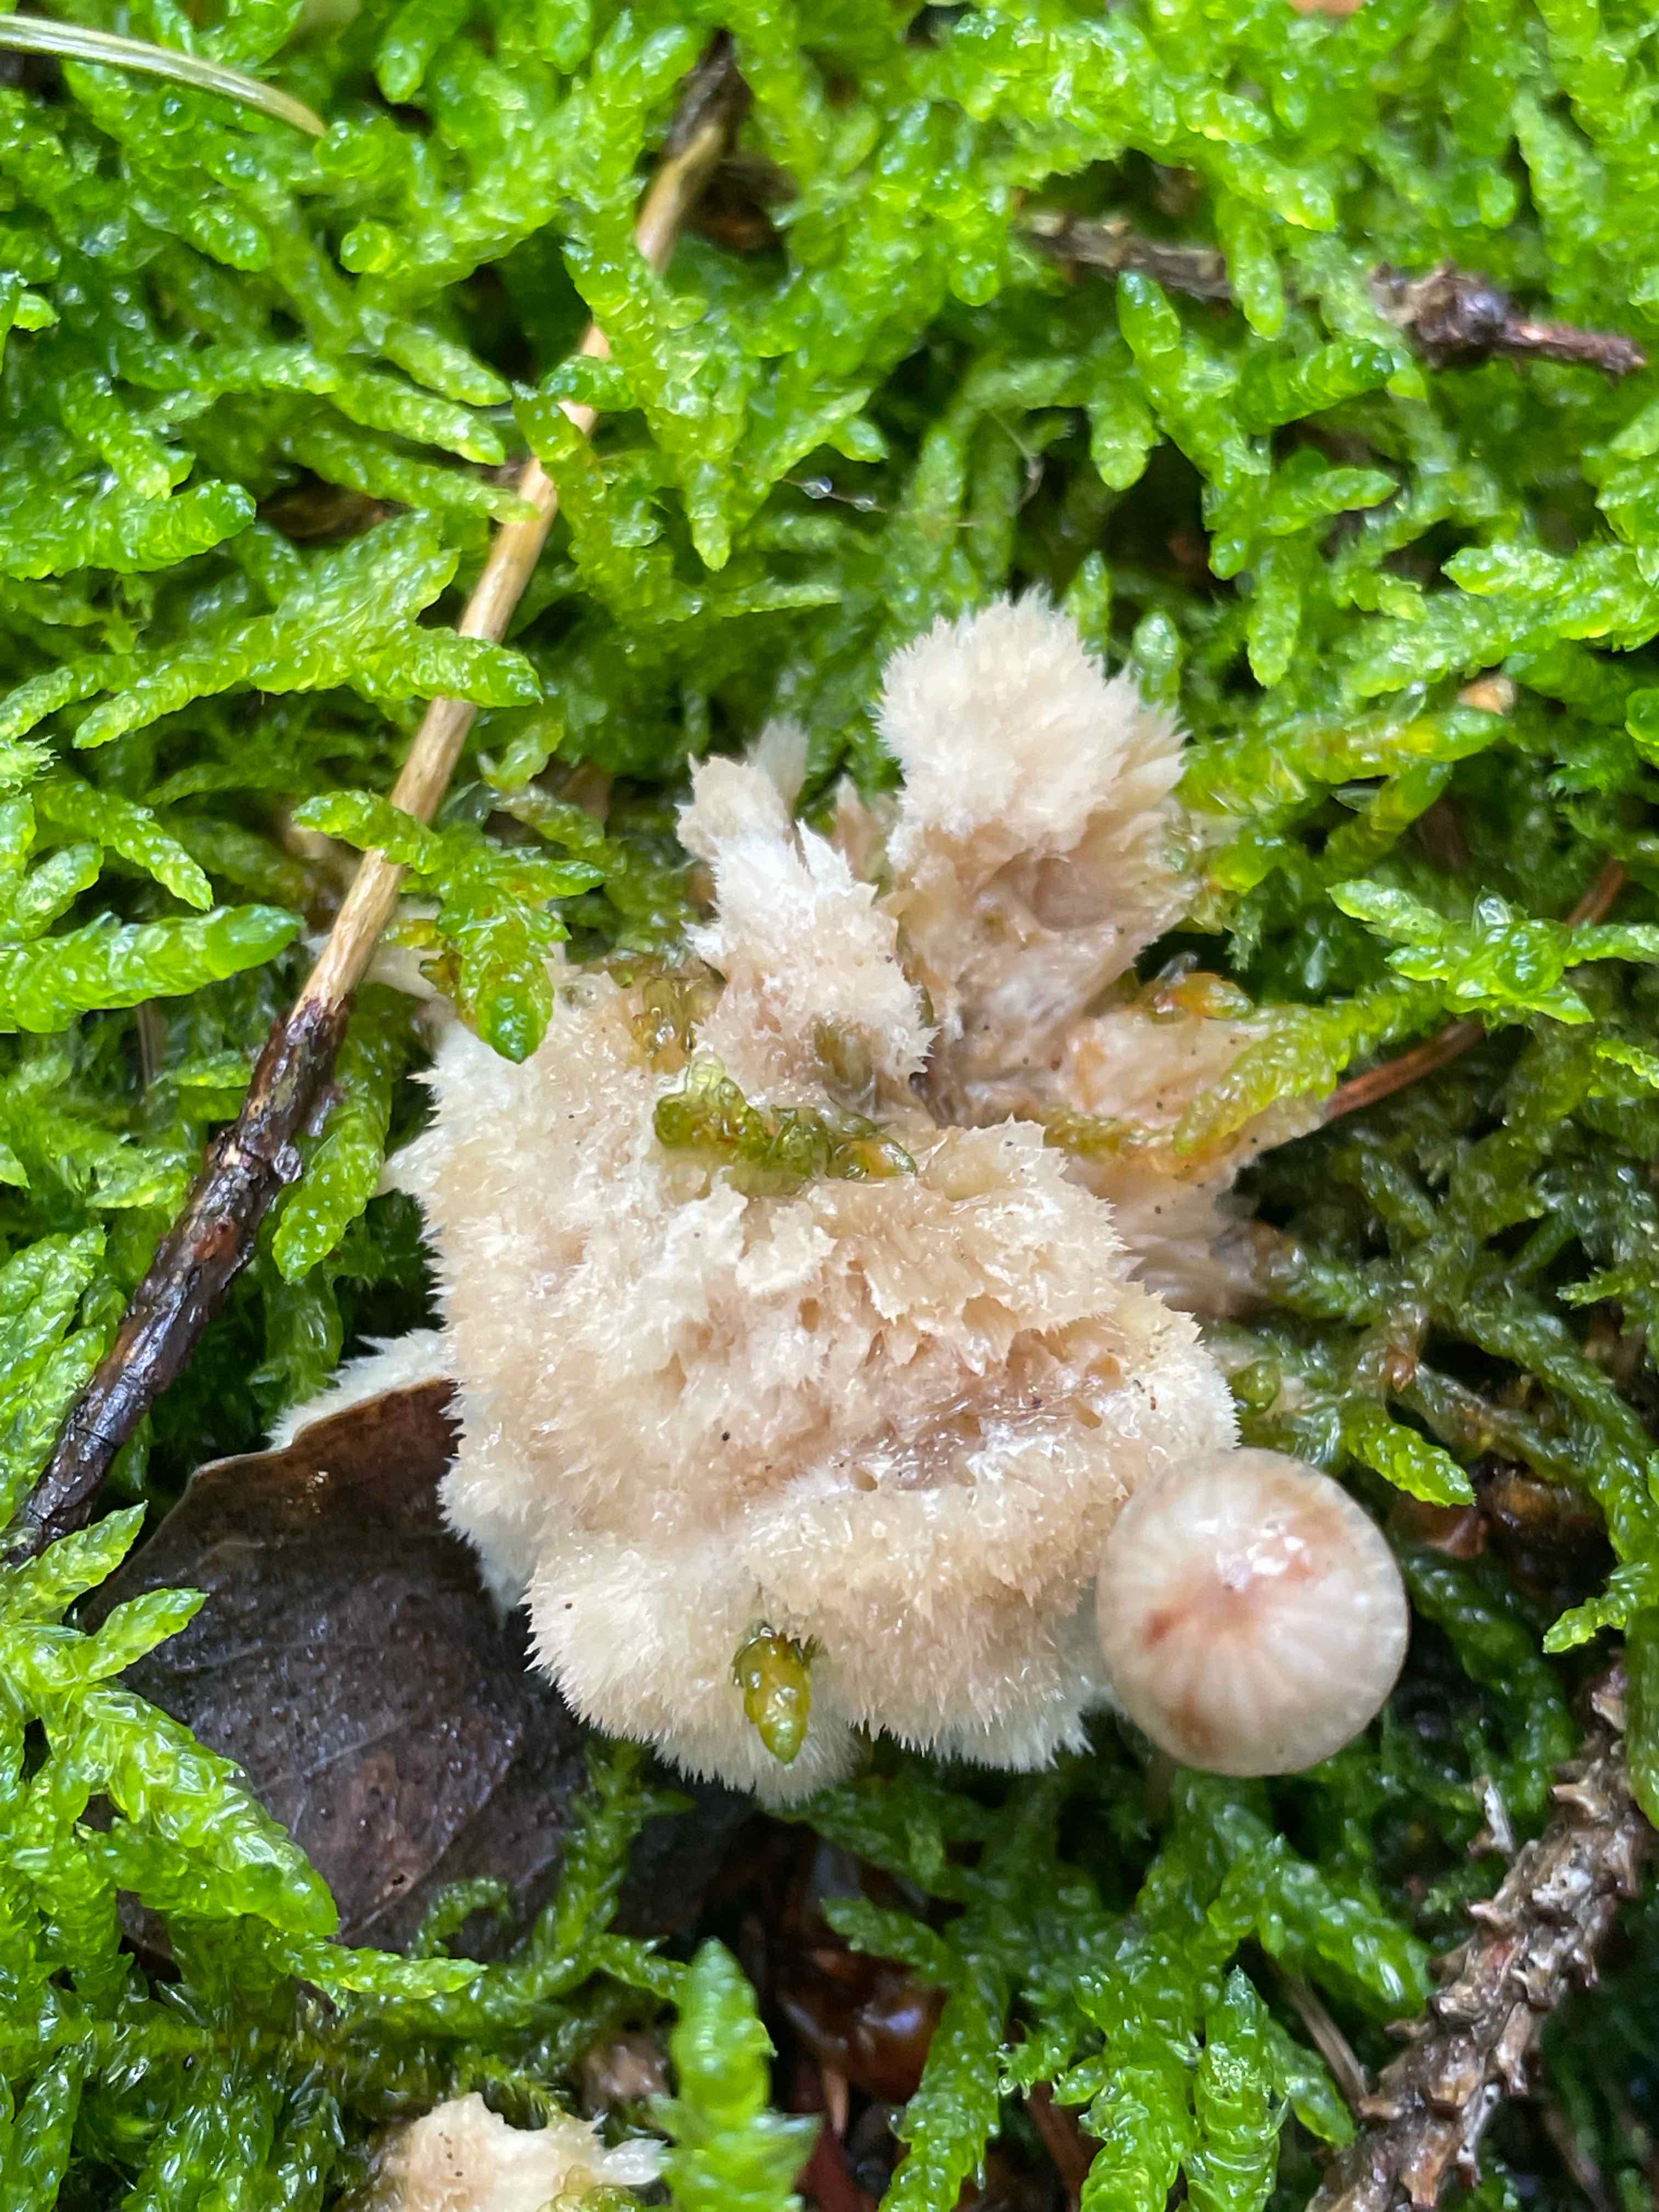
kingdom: Fungi
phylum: Basidiomycota
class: Agaricomycetes
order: Polyporales
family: Dacryobolaceae
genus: Postia
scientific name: Postia ptychogaster
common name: støvende kødporesvamp
